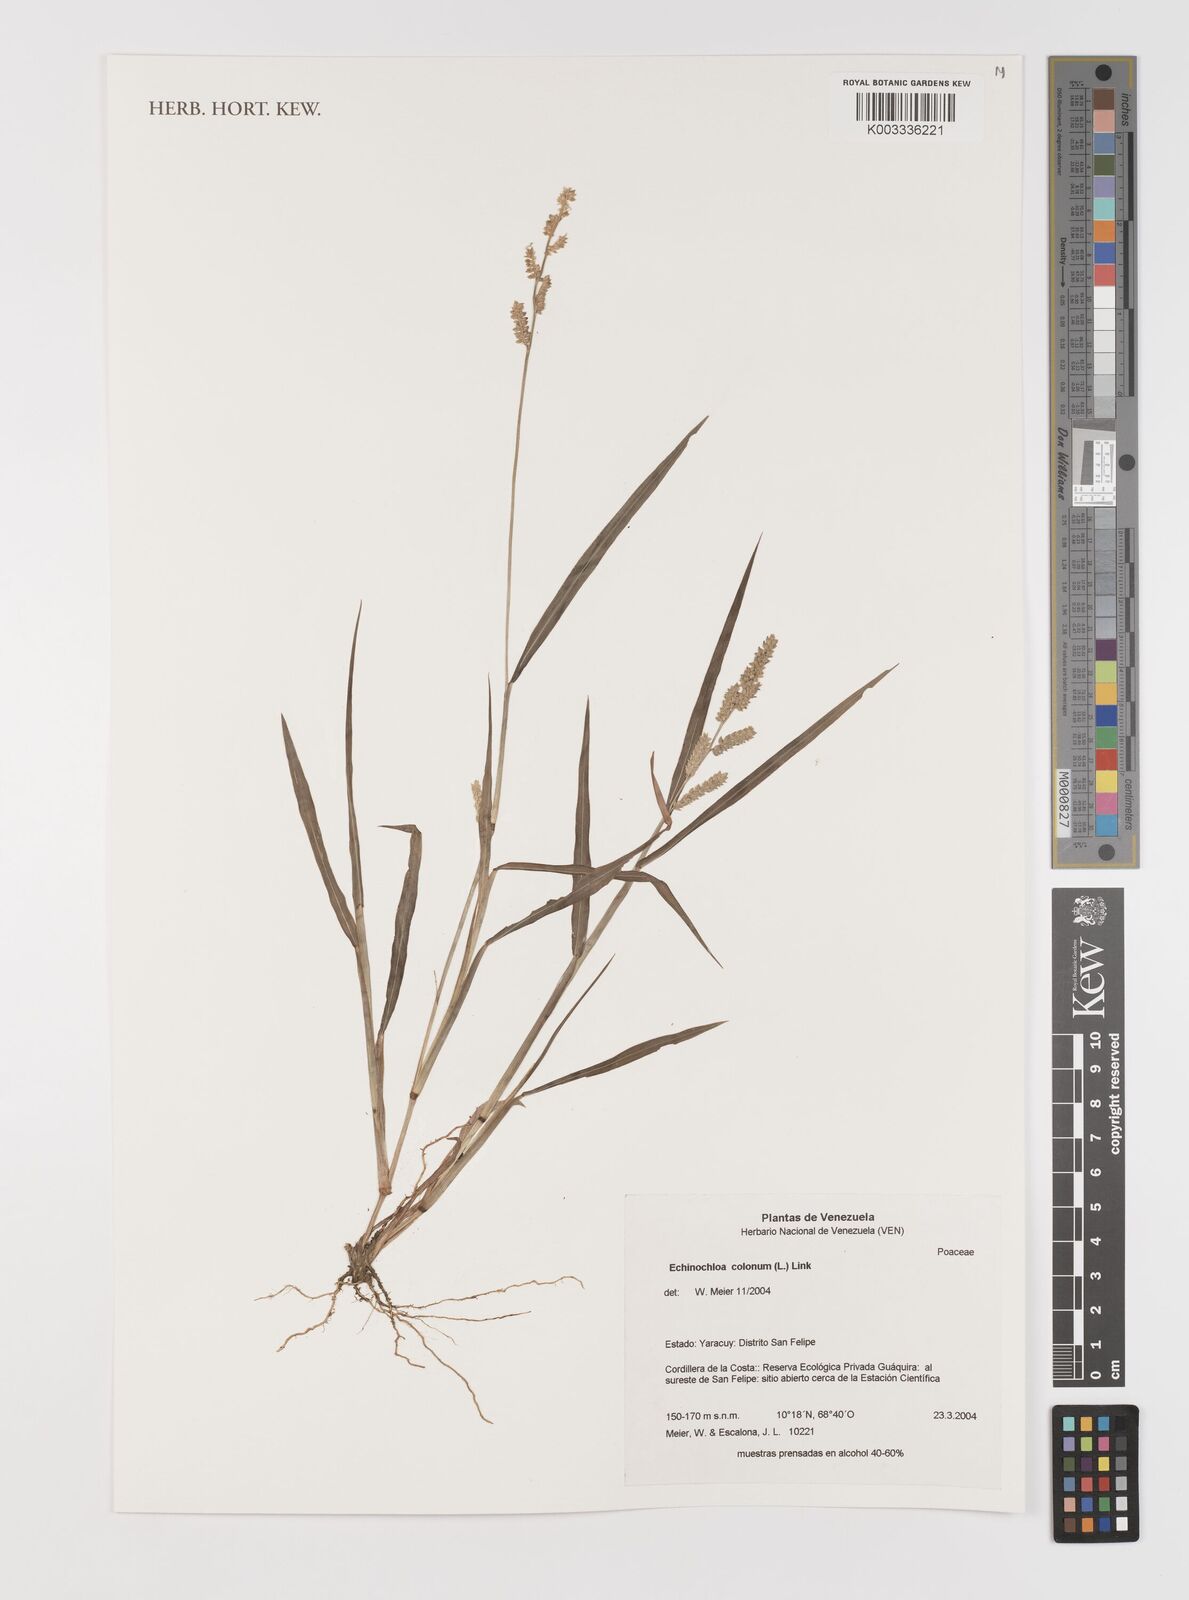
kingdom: Plantae
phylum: Tracheophyta
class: Liliopsida
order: Poales
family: Poaceae
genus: Echinochloa
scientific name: Echinochloa colonum
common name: Jungle rice
